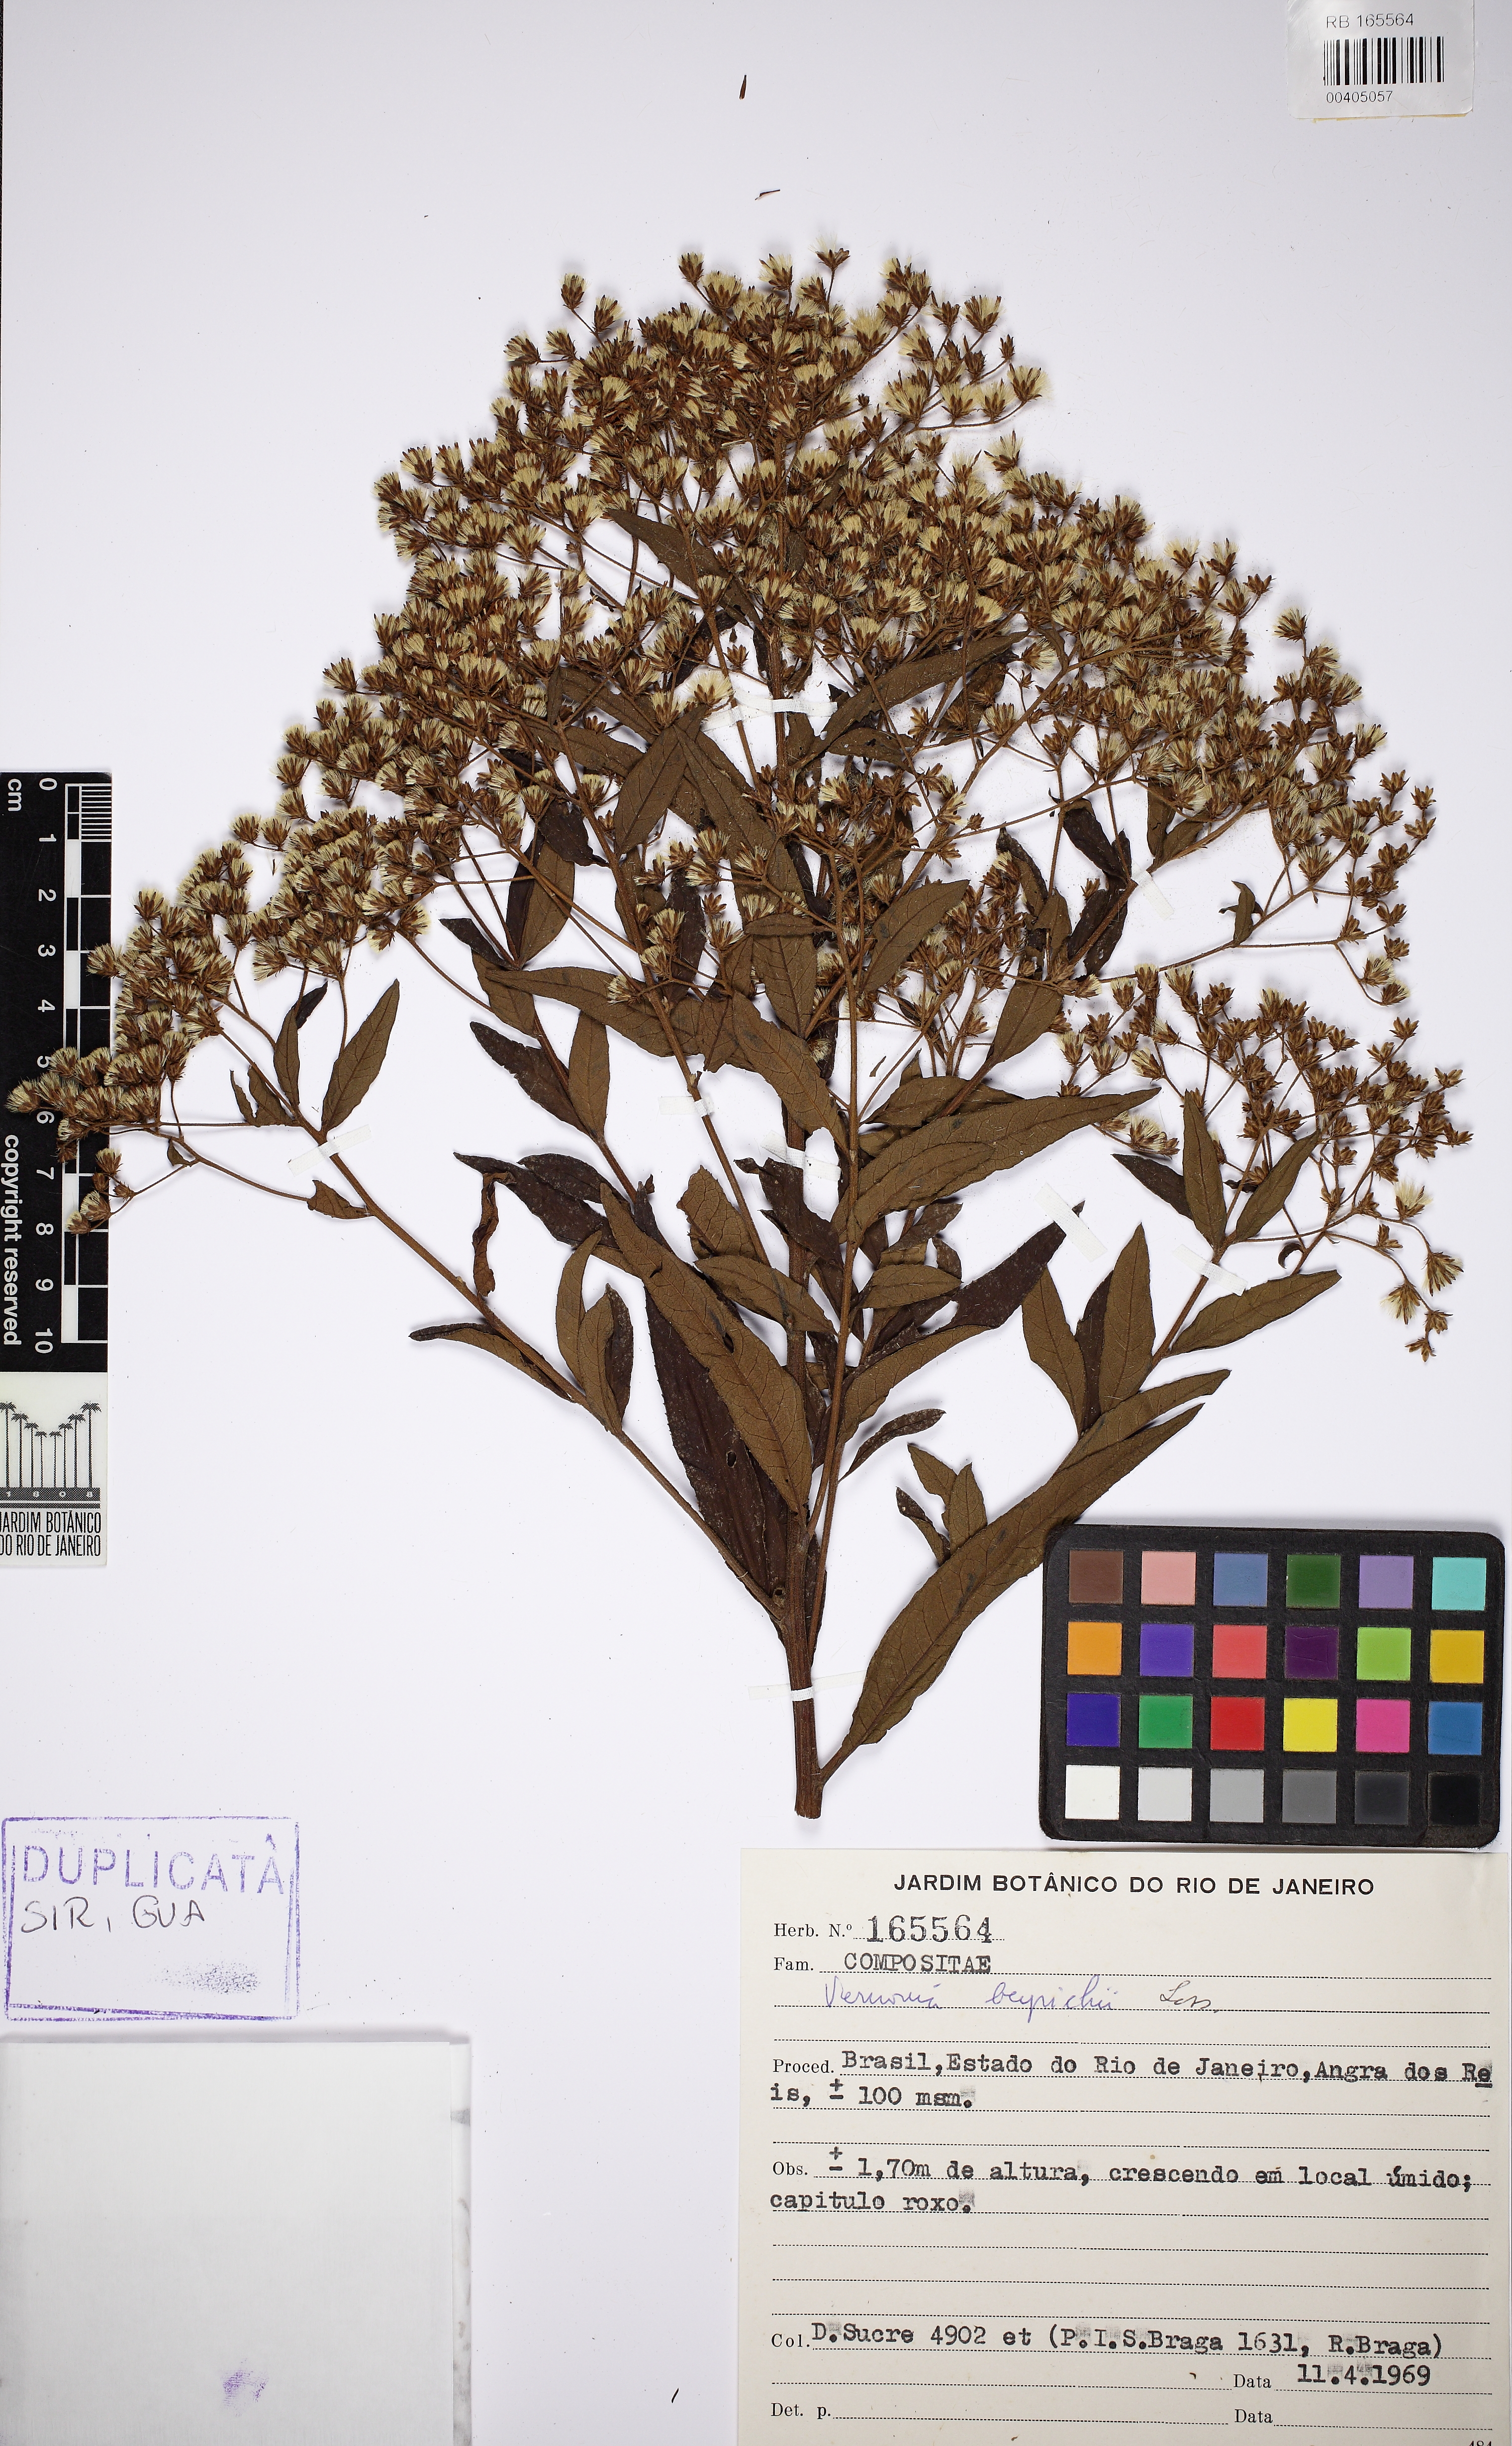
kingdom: Plantae
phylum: Tracheophyta
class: Magnoliopsida
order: Asterales
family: Asteraceae
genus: Vernonanthura
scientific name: Vernonanthura beyrichii
